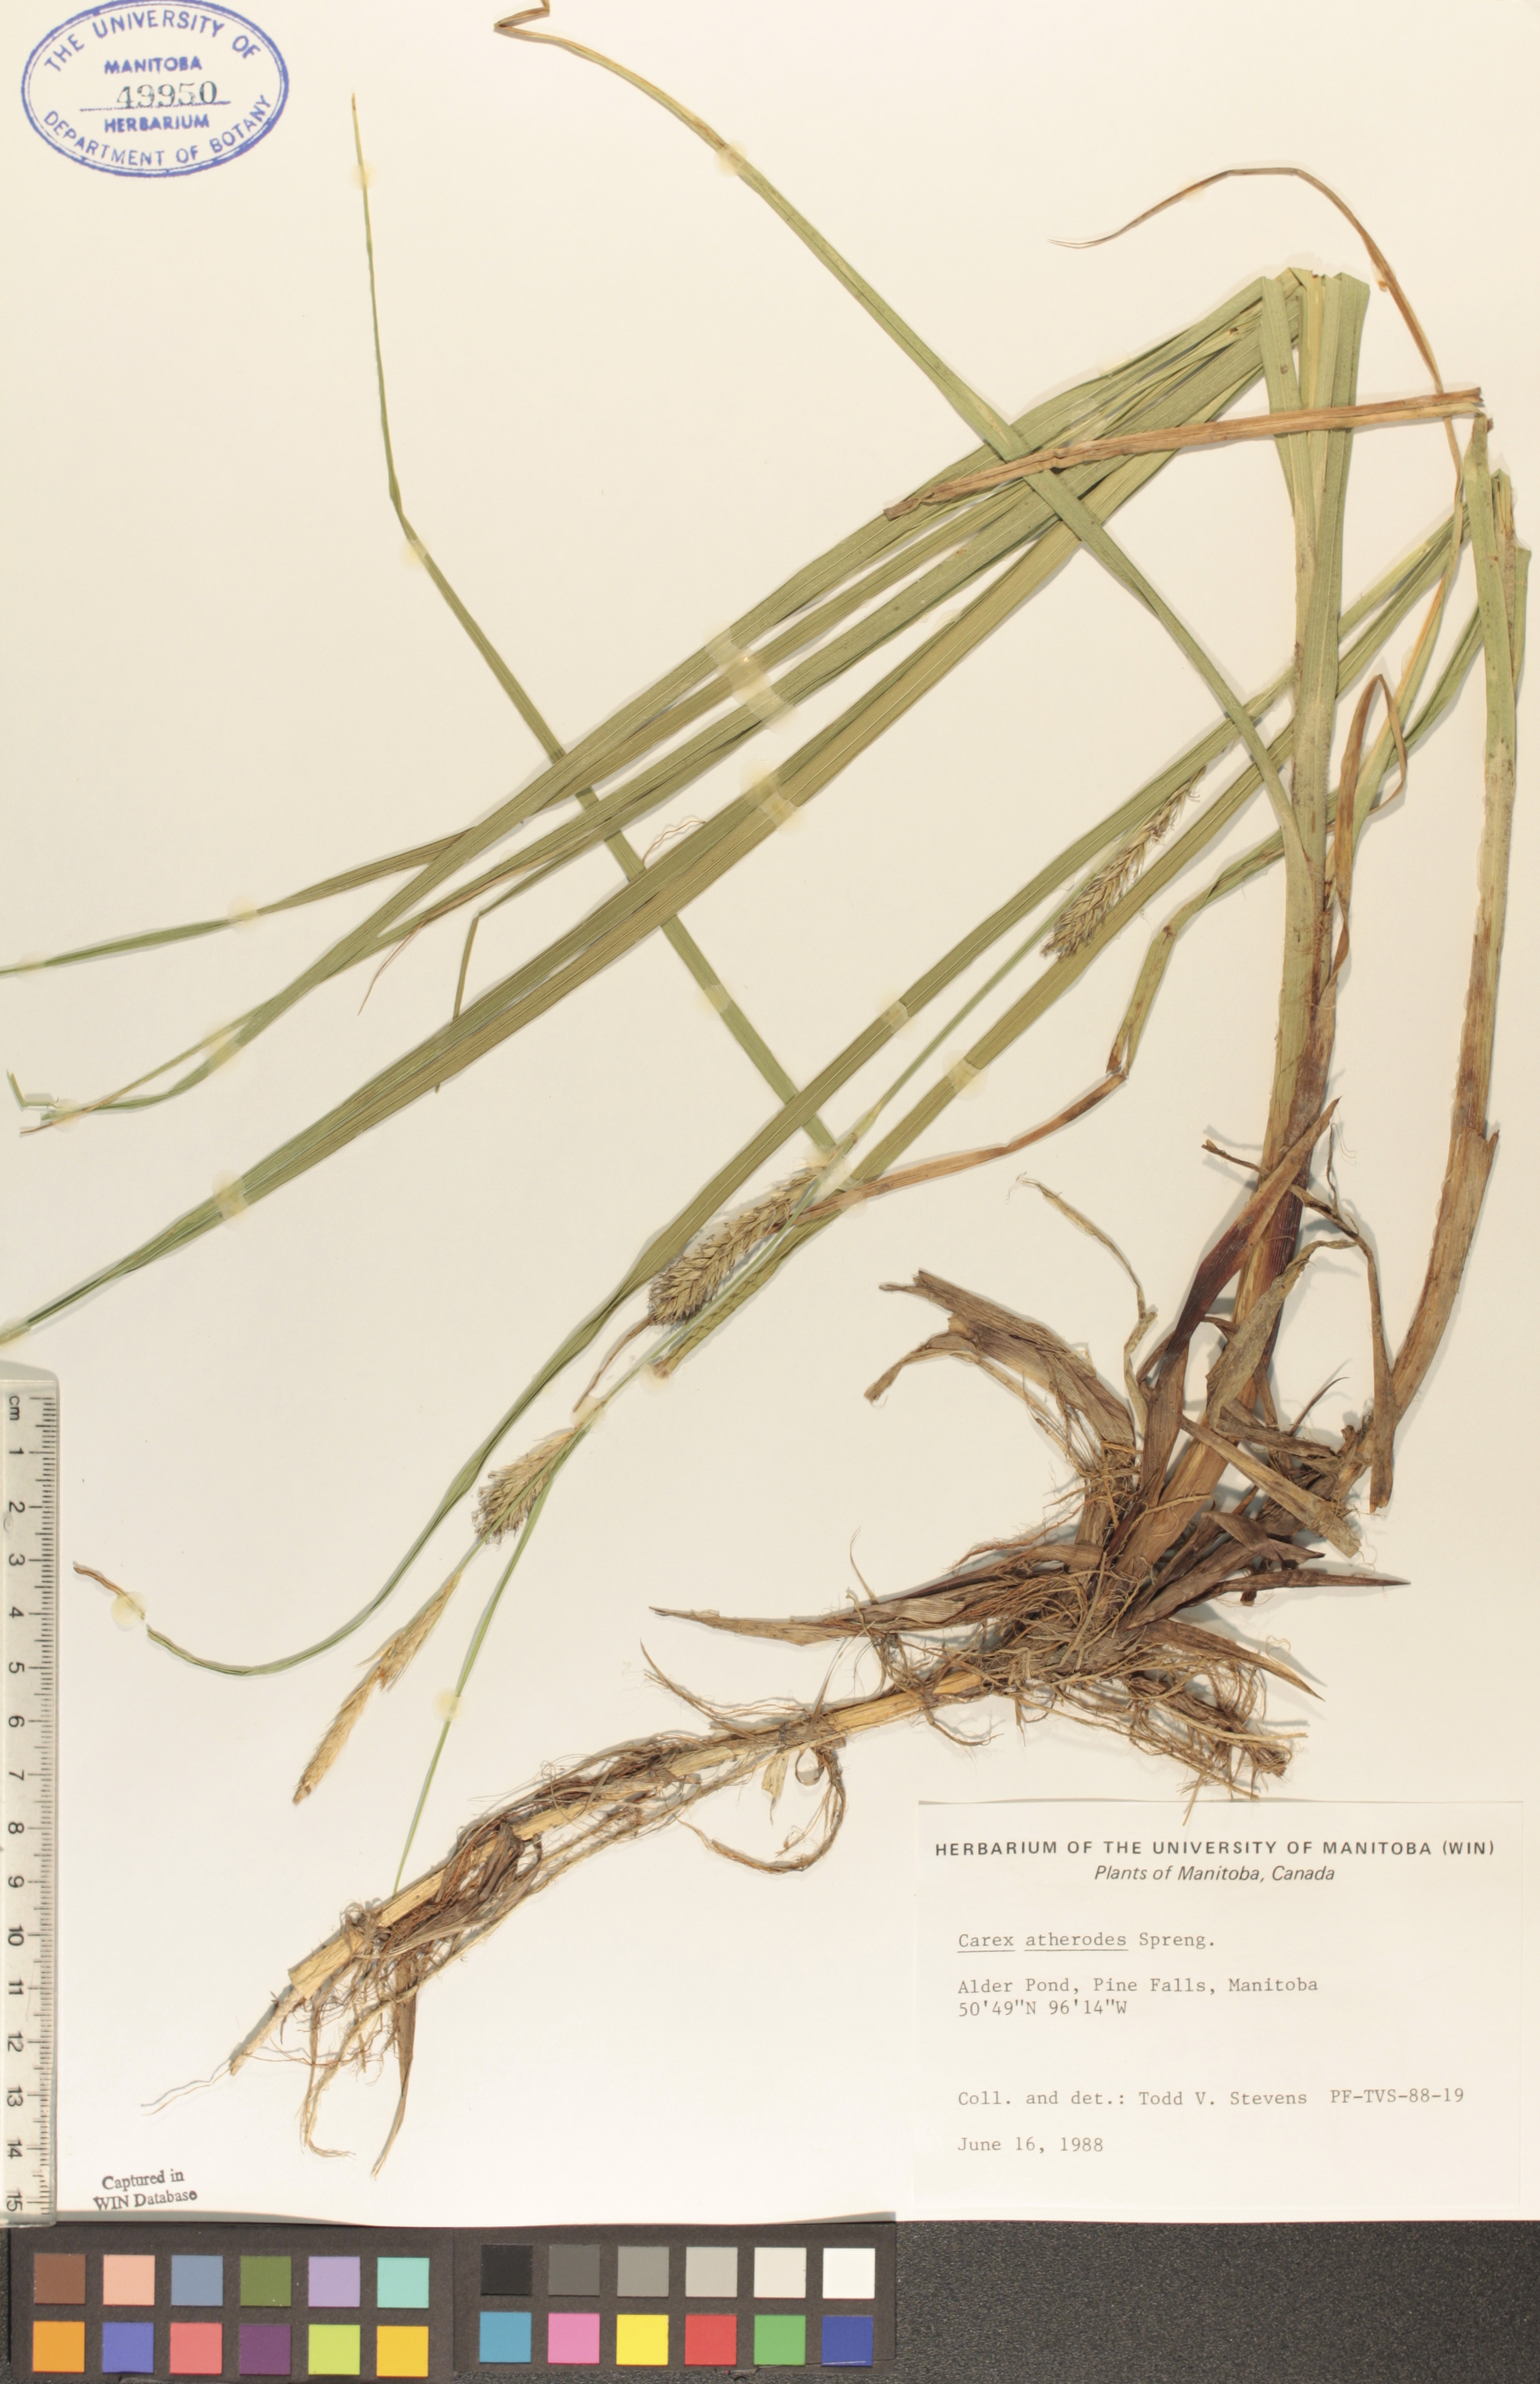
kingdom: Plantae
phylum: Tracheophyta
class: Liliopsida
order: Poales
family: Cyperaceae
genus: Carex
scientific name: Carex atherodes
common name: Wheat sedge
